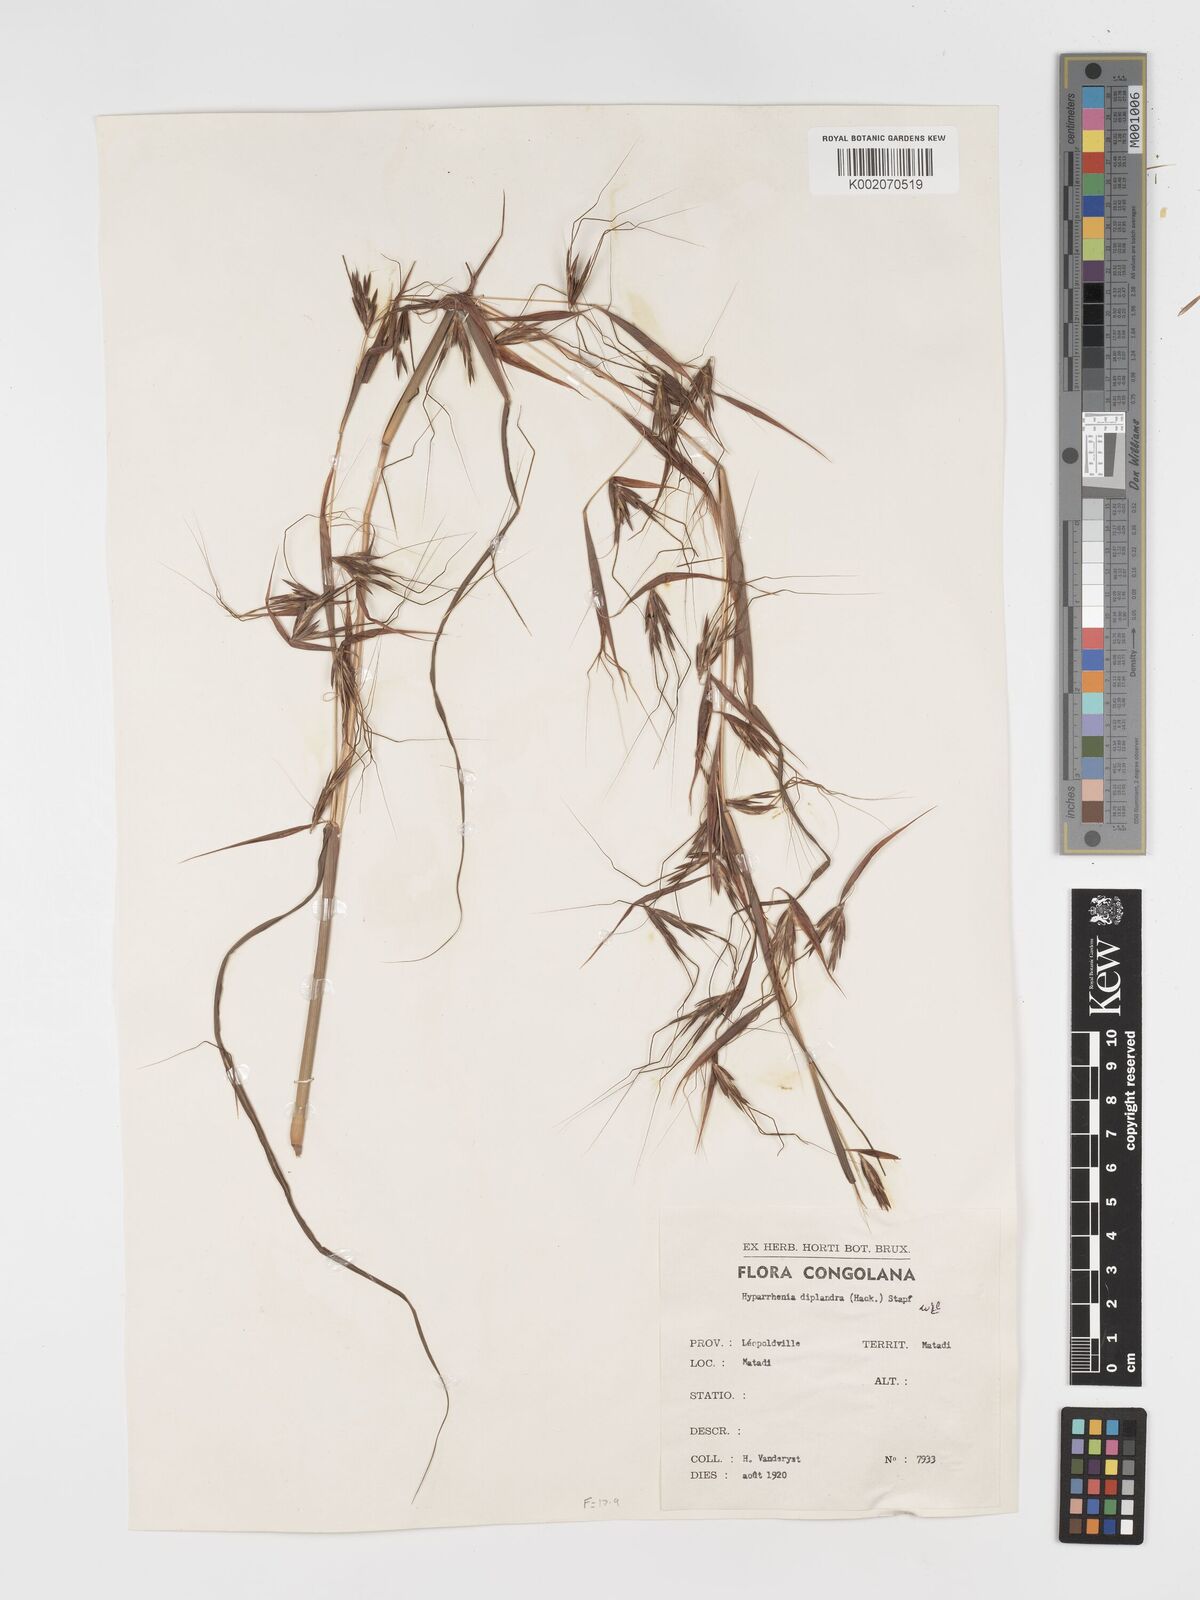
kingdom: Plantae
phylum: Tracheophyta
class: Liliopsida
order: Poales
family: Poaceae
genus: Hyparrhenia
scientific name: Hyparrhenia diplandra
